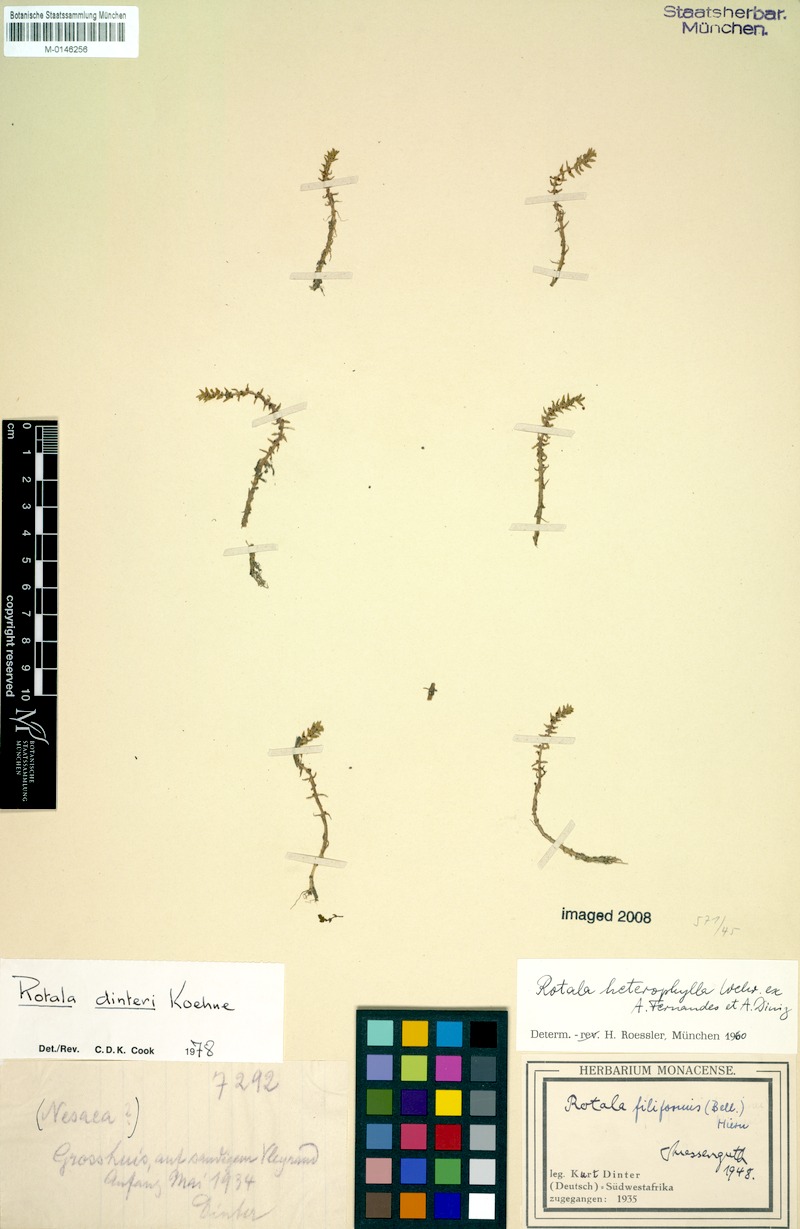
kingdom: Plantae
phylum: Tracheophyta
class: Magnoliopsida
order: Myrtales
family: Lythraceae
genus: Rotala
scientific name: Rotala dinteri
